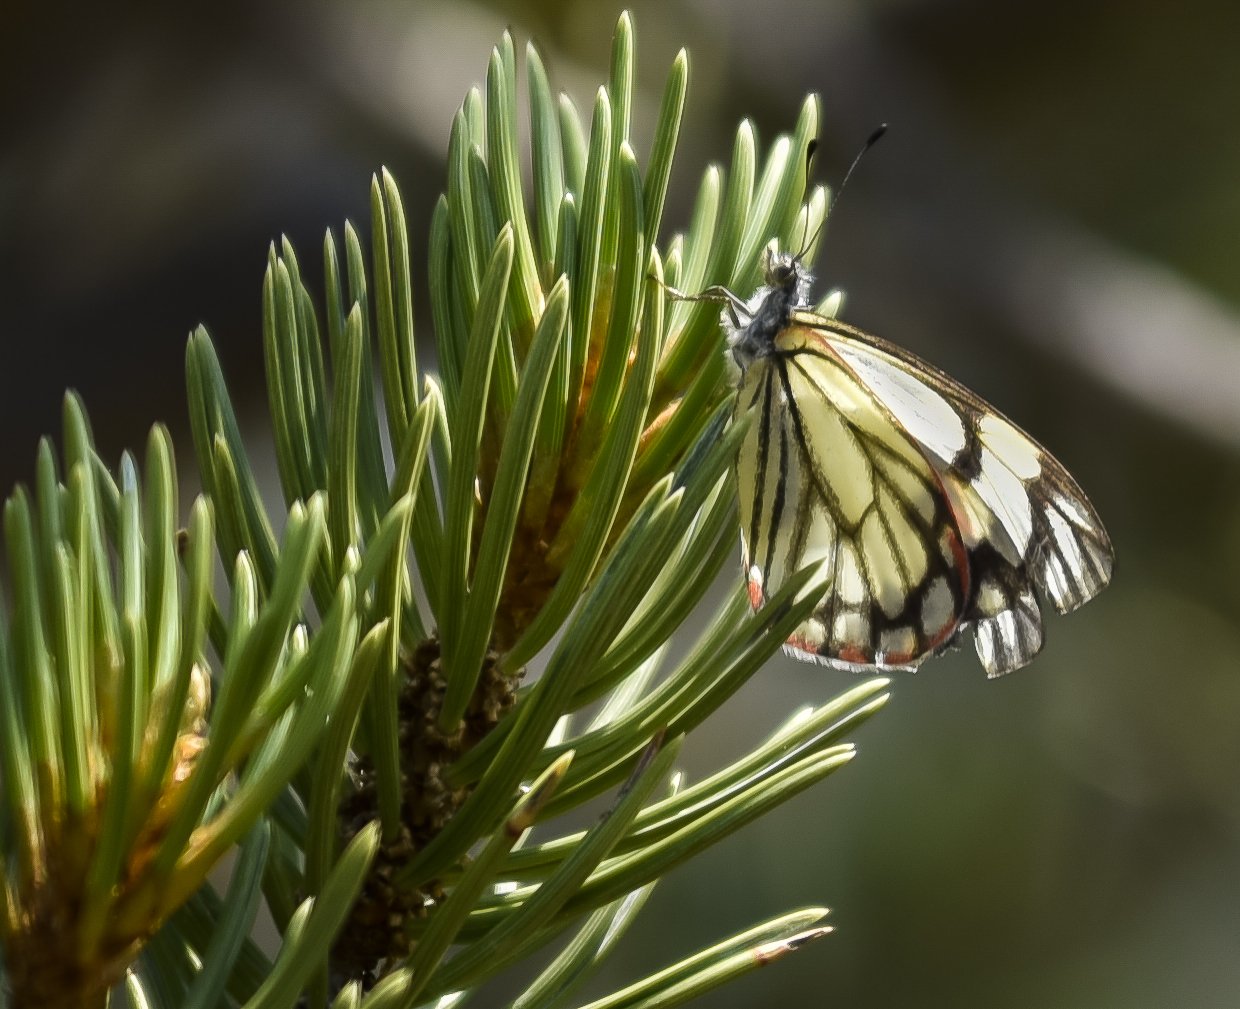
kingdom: Animalia
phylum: Arthropoda
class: Insecta
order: Lepidoptera
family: Pieridae
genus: Neophasia
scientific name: Neophasia menapia
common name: Pine White
